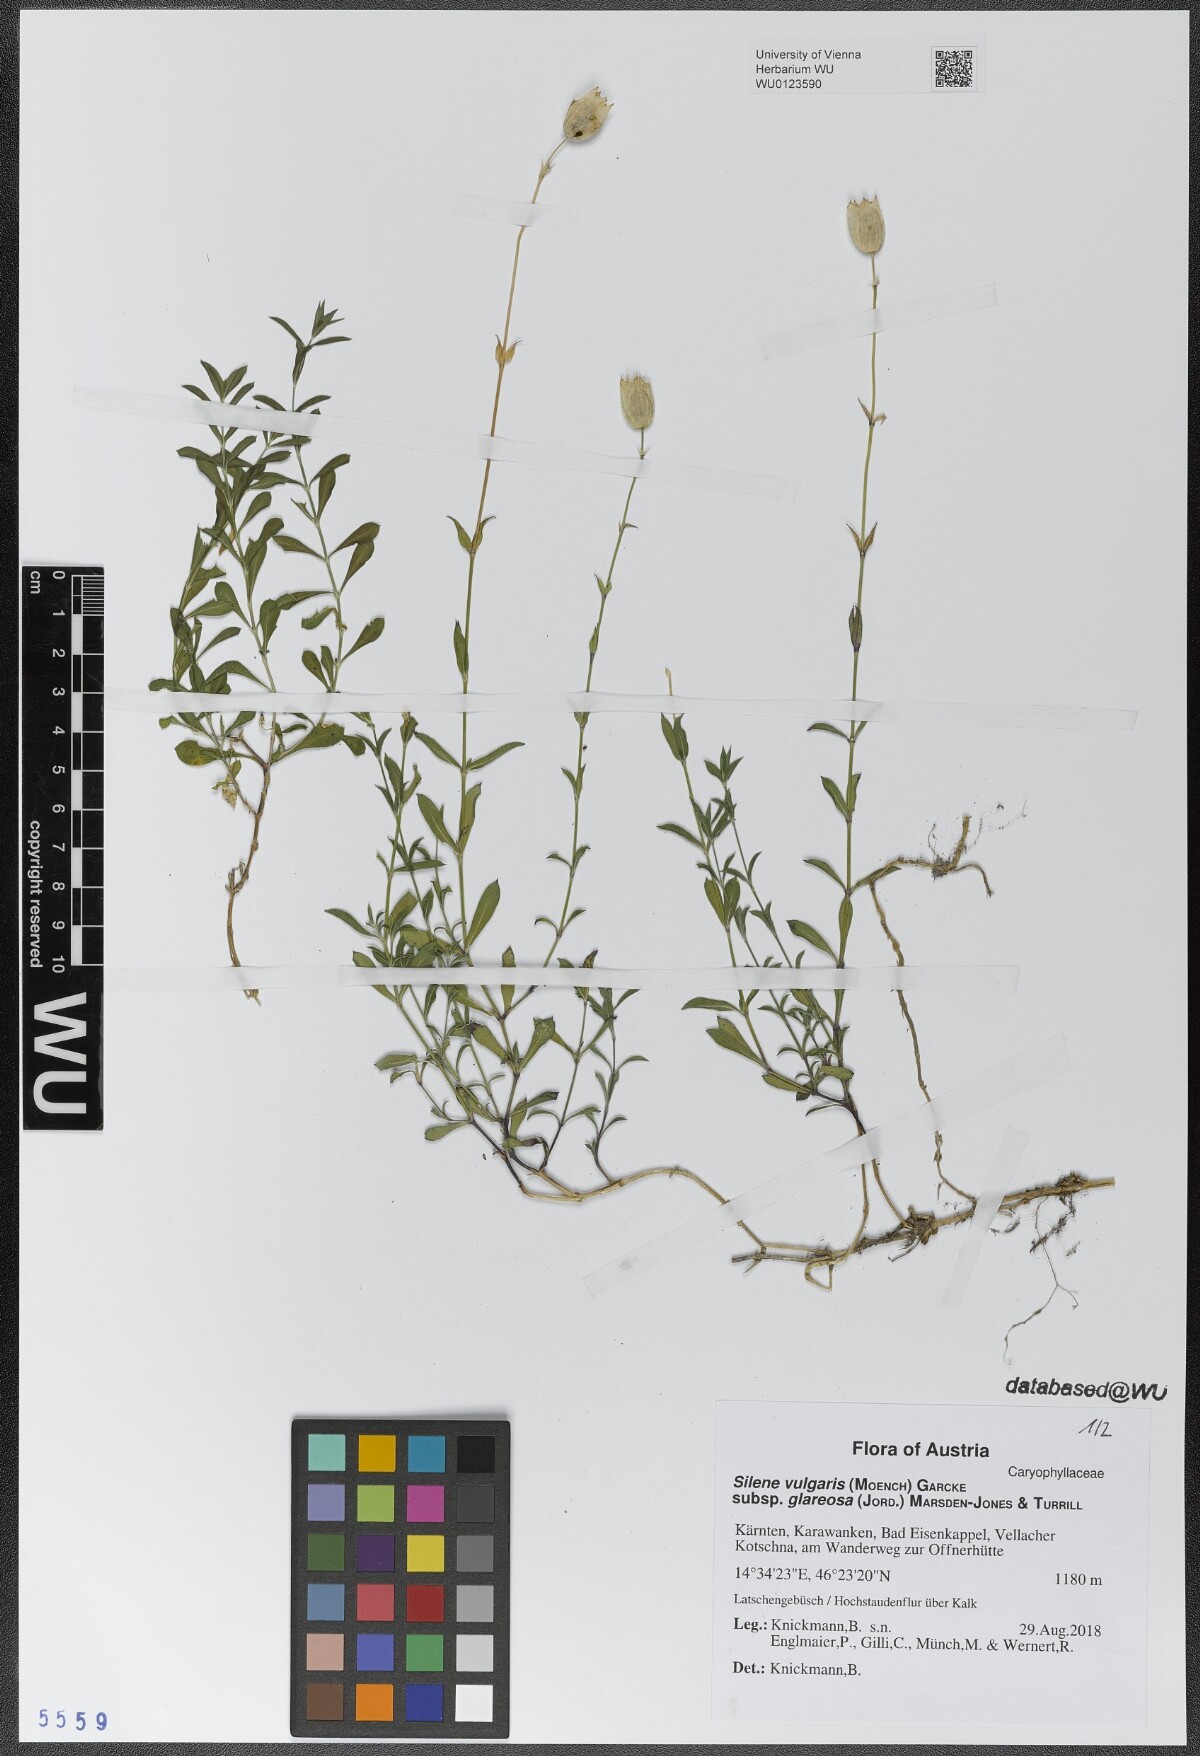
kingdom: Plantae
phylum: Tracheophyta
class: Magnoliopsida
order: Caryophyllales
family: Caryophyllaceae
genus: Silene
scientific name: Silene glareosa
